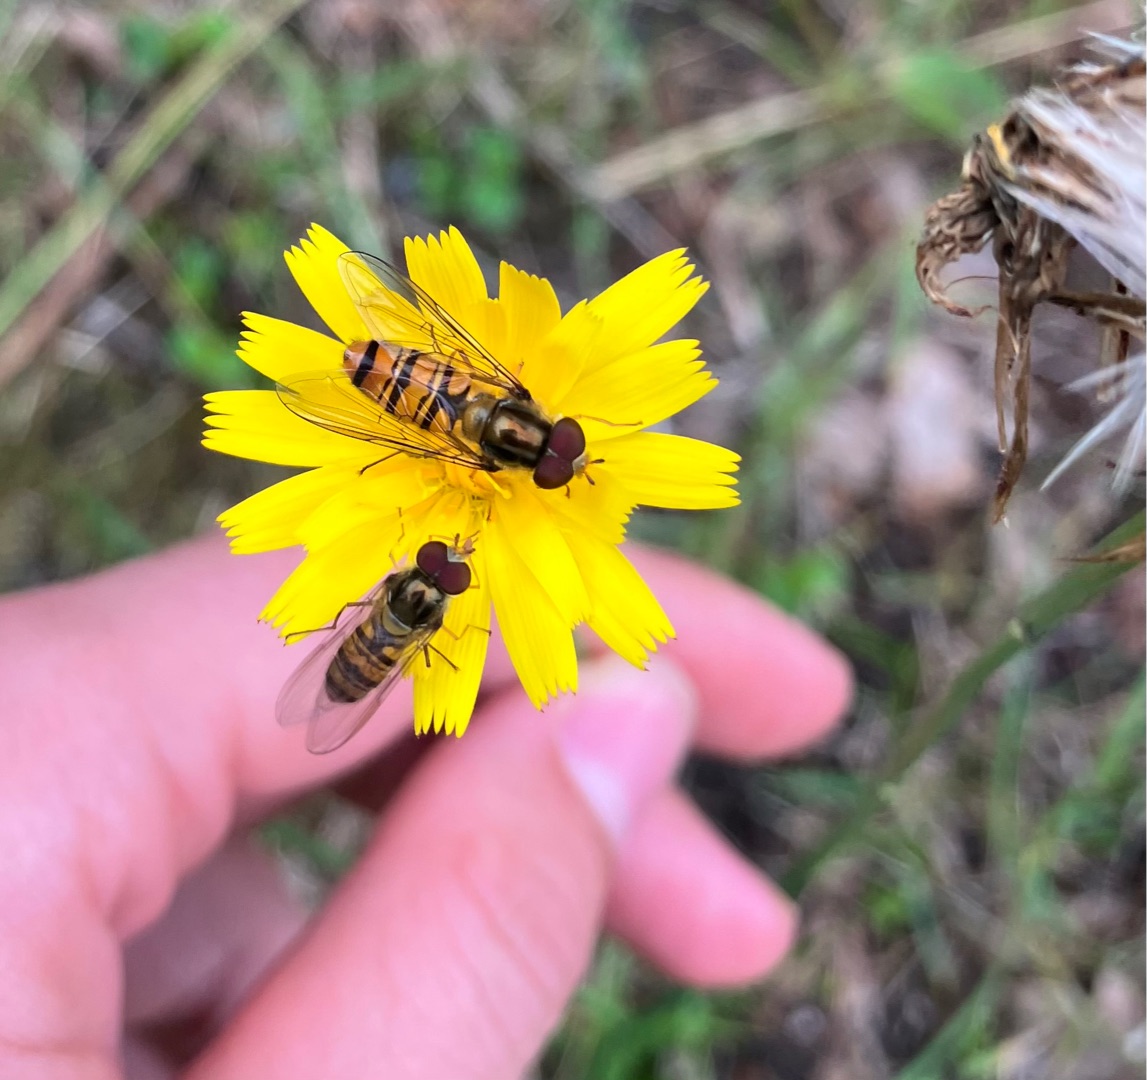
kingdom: Animalia
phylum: Arthropoda
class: Insecta
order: Diptera
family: Syrphidae
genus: Episyrphus
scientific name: Episyrphus balteatus
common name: Dobbeltbåndet svirreflue
